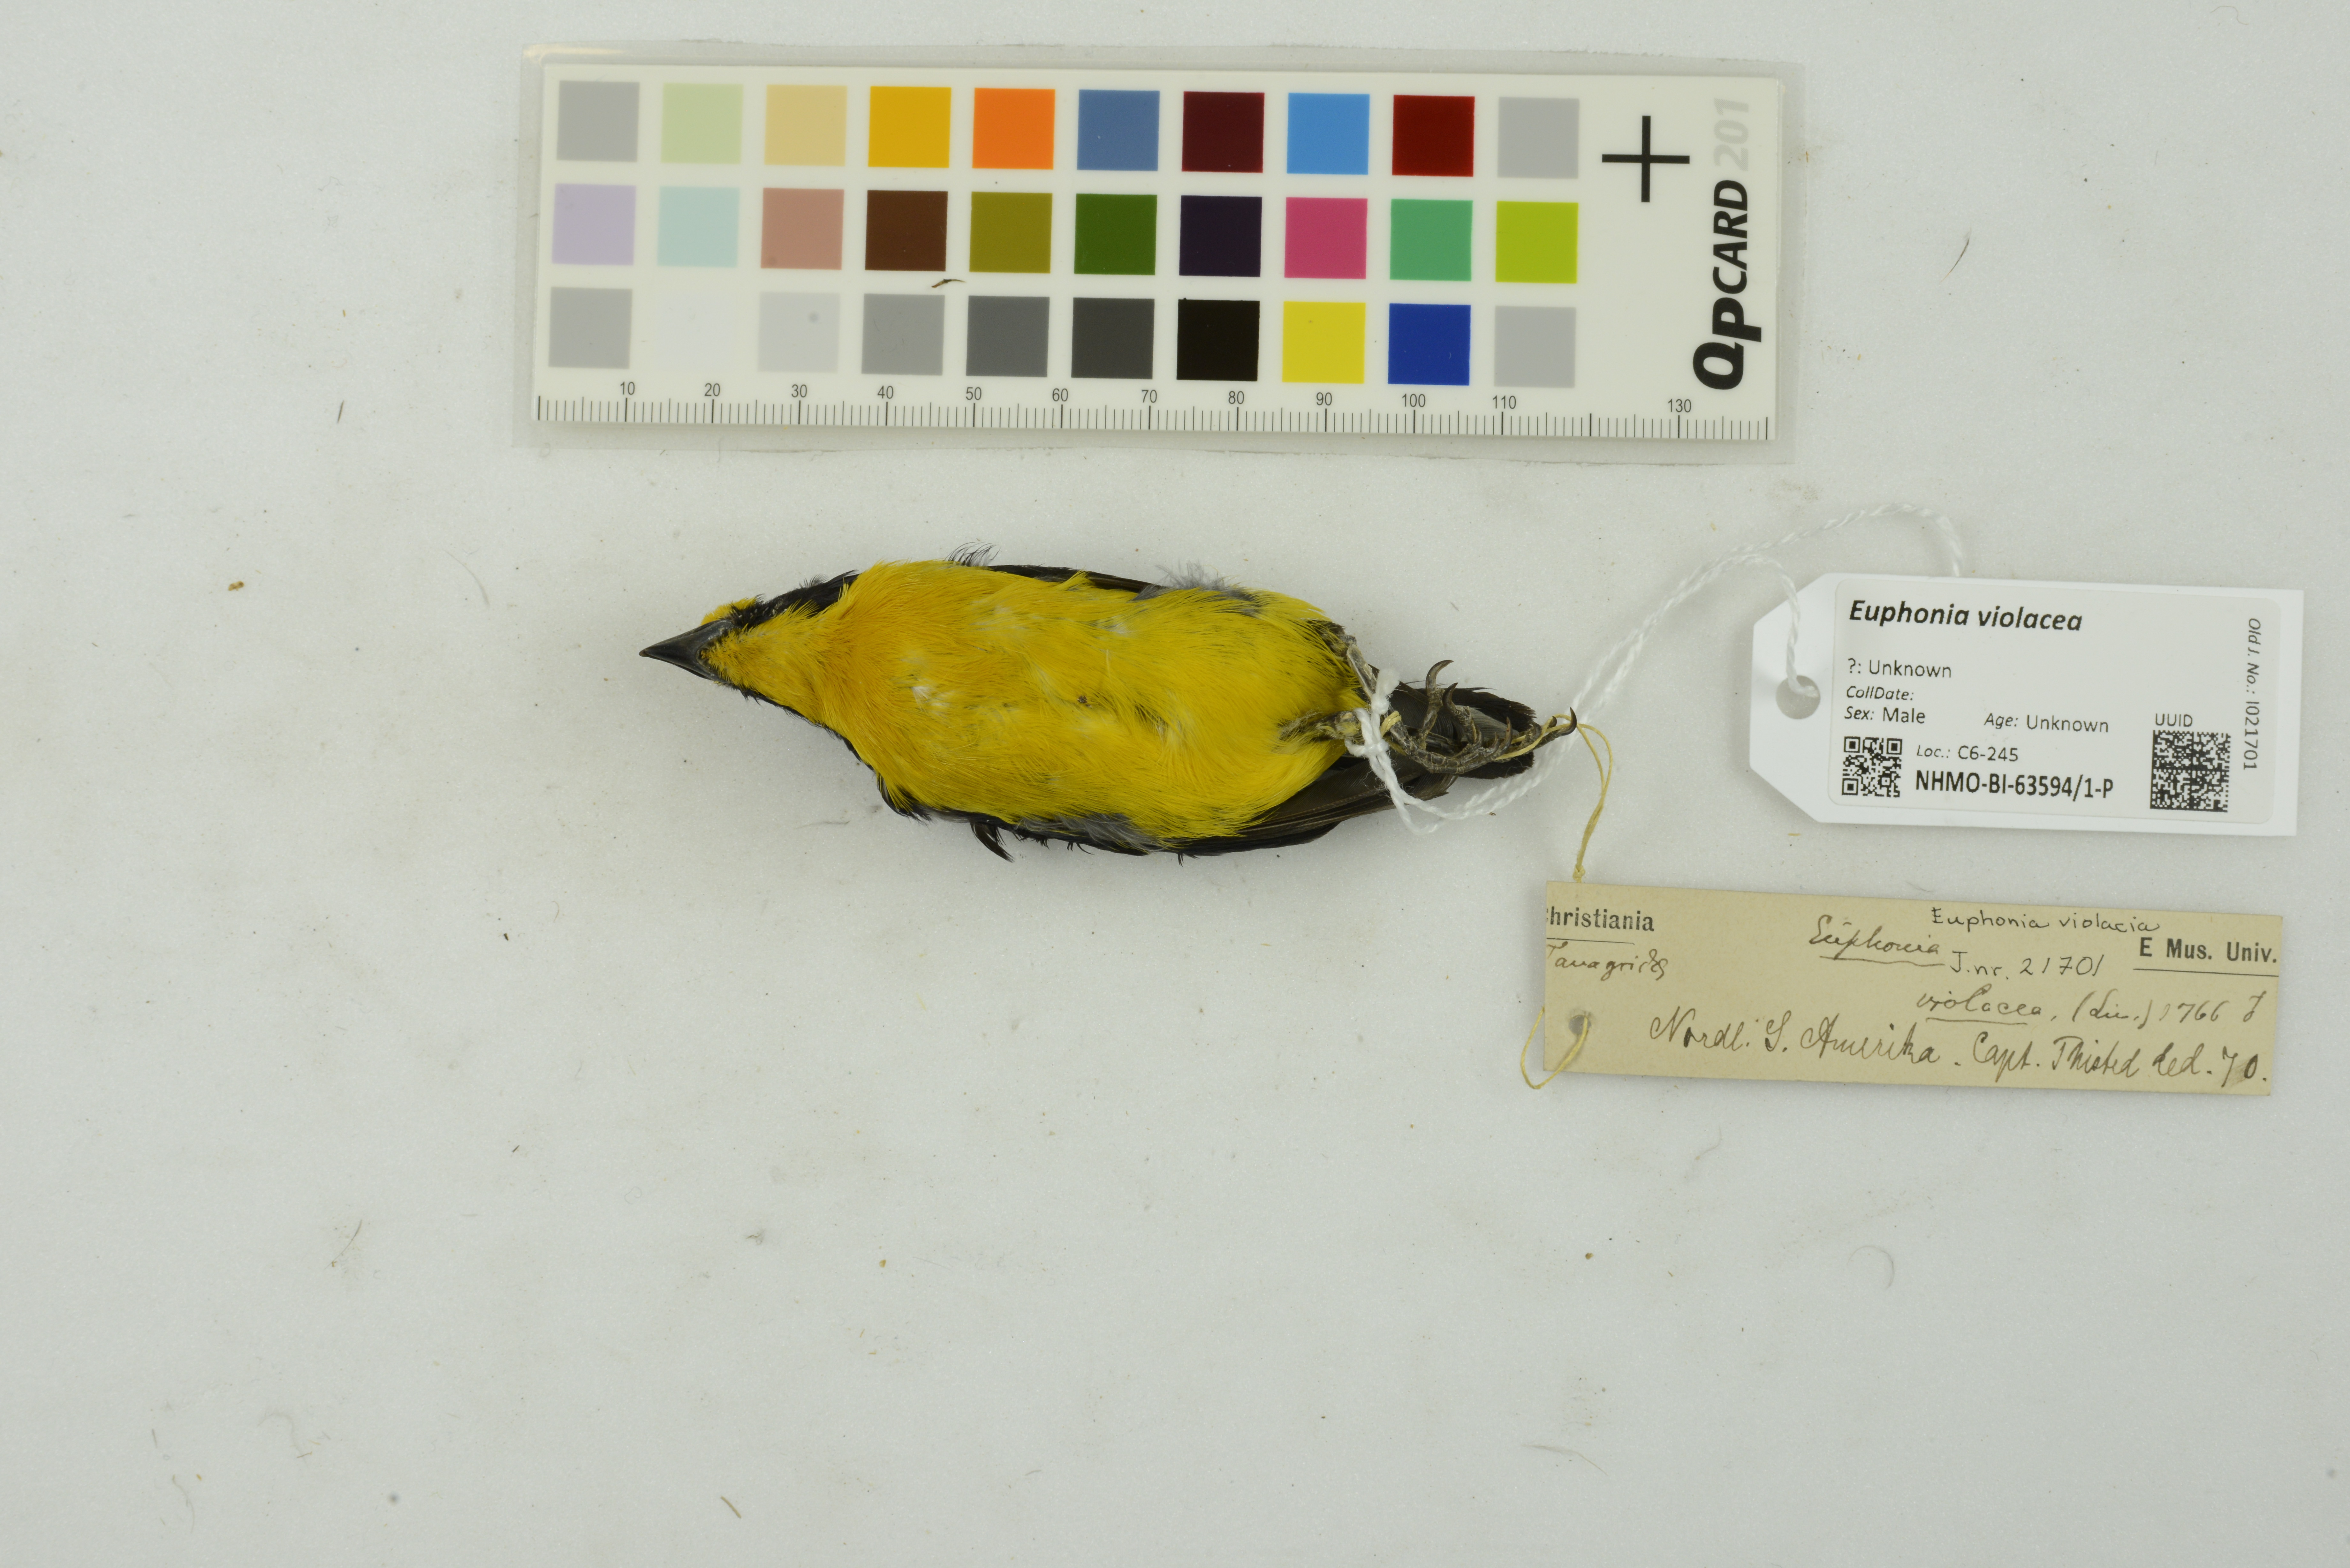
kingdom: Animalia
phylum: Chordata
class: Aves
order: Passeriformes
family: Fringillidae
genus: Euphonia
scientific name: Euphonia violacea
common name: Violaceous euphonia
